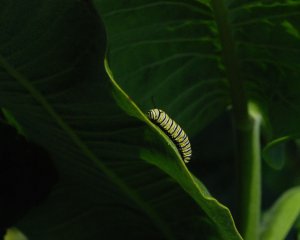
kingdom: Animalia
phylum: Arthropoda
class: Insecta
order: Lepidoptera
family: Nymphalidae
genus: Danaus
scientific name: Danaus plexippus
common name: Monarch
